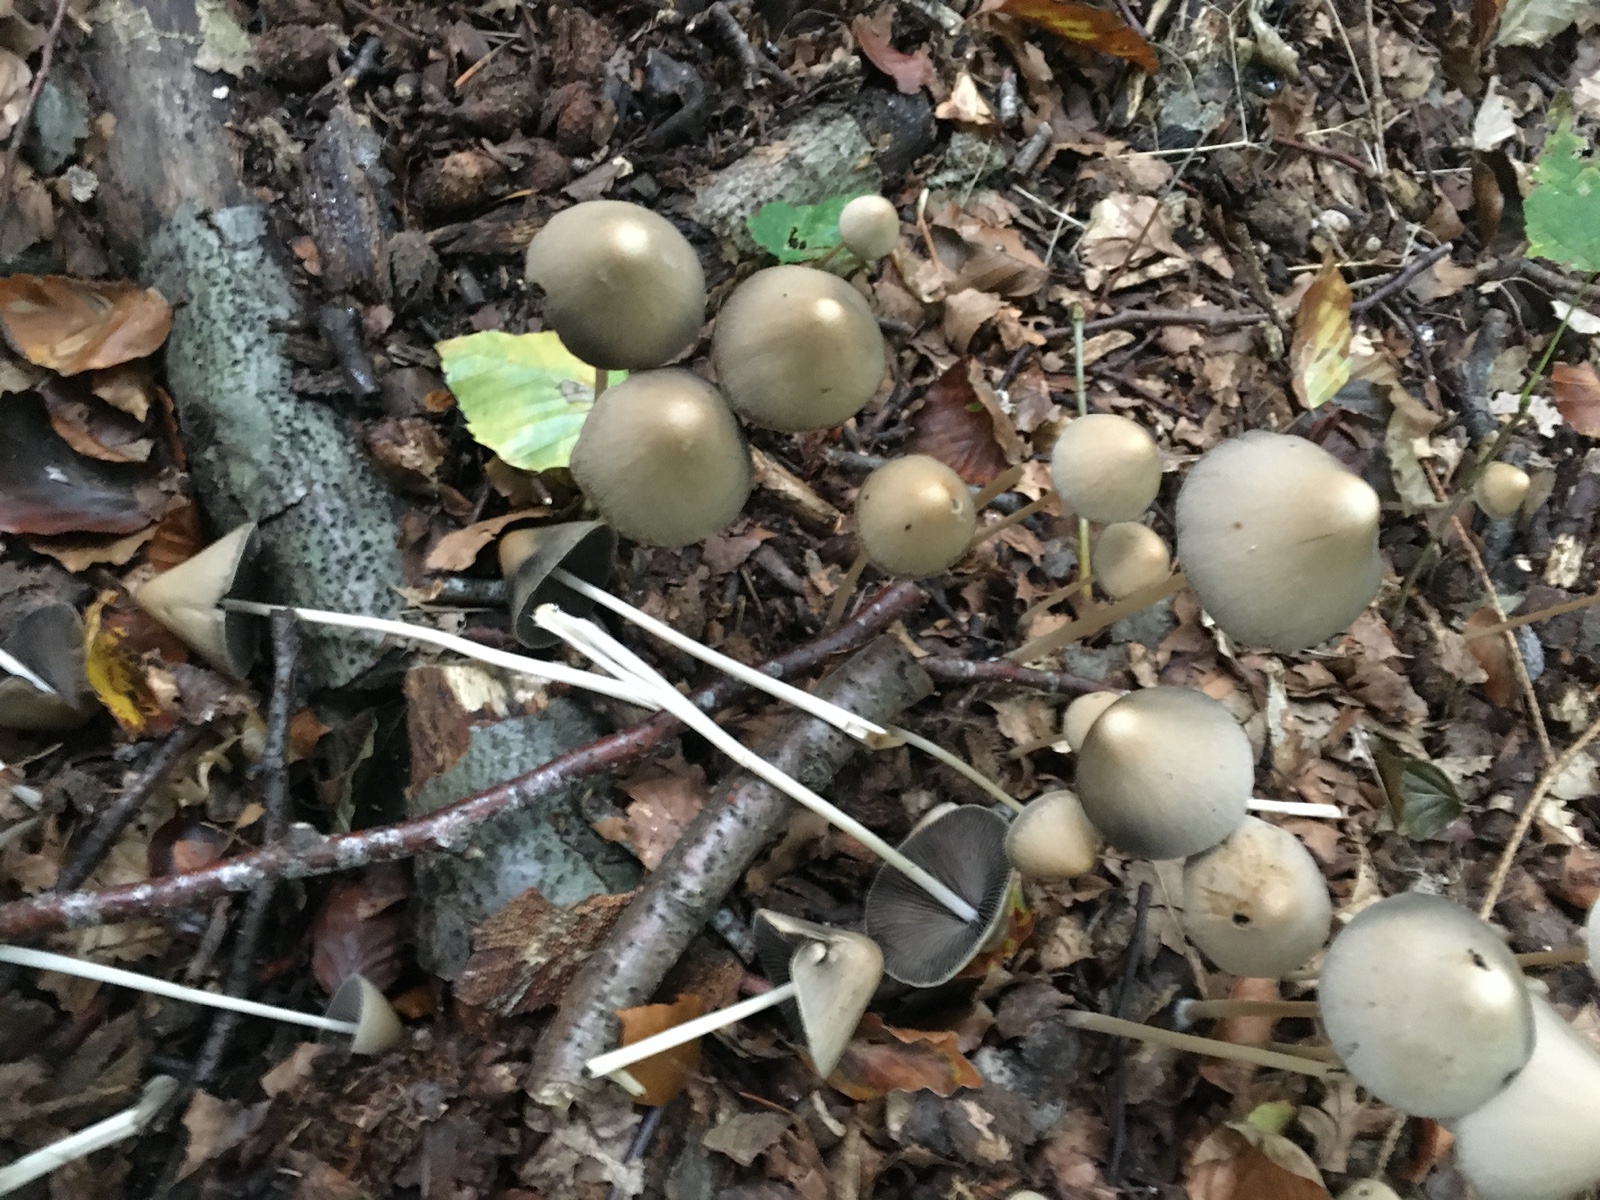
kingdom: Fungi
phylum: Basidiomycota
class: Agaricomycetes
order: Agaricales
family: Psathyrellaceae
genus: Parasola
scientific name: Parasola conopilea
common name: kegle-hjulhat
